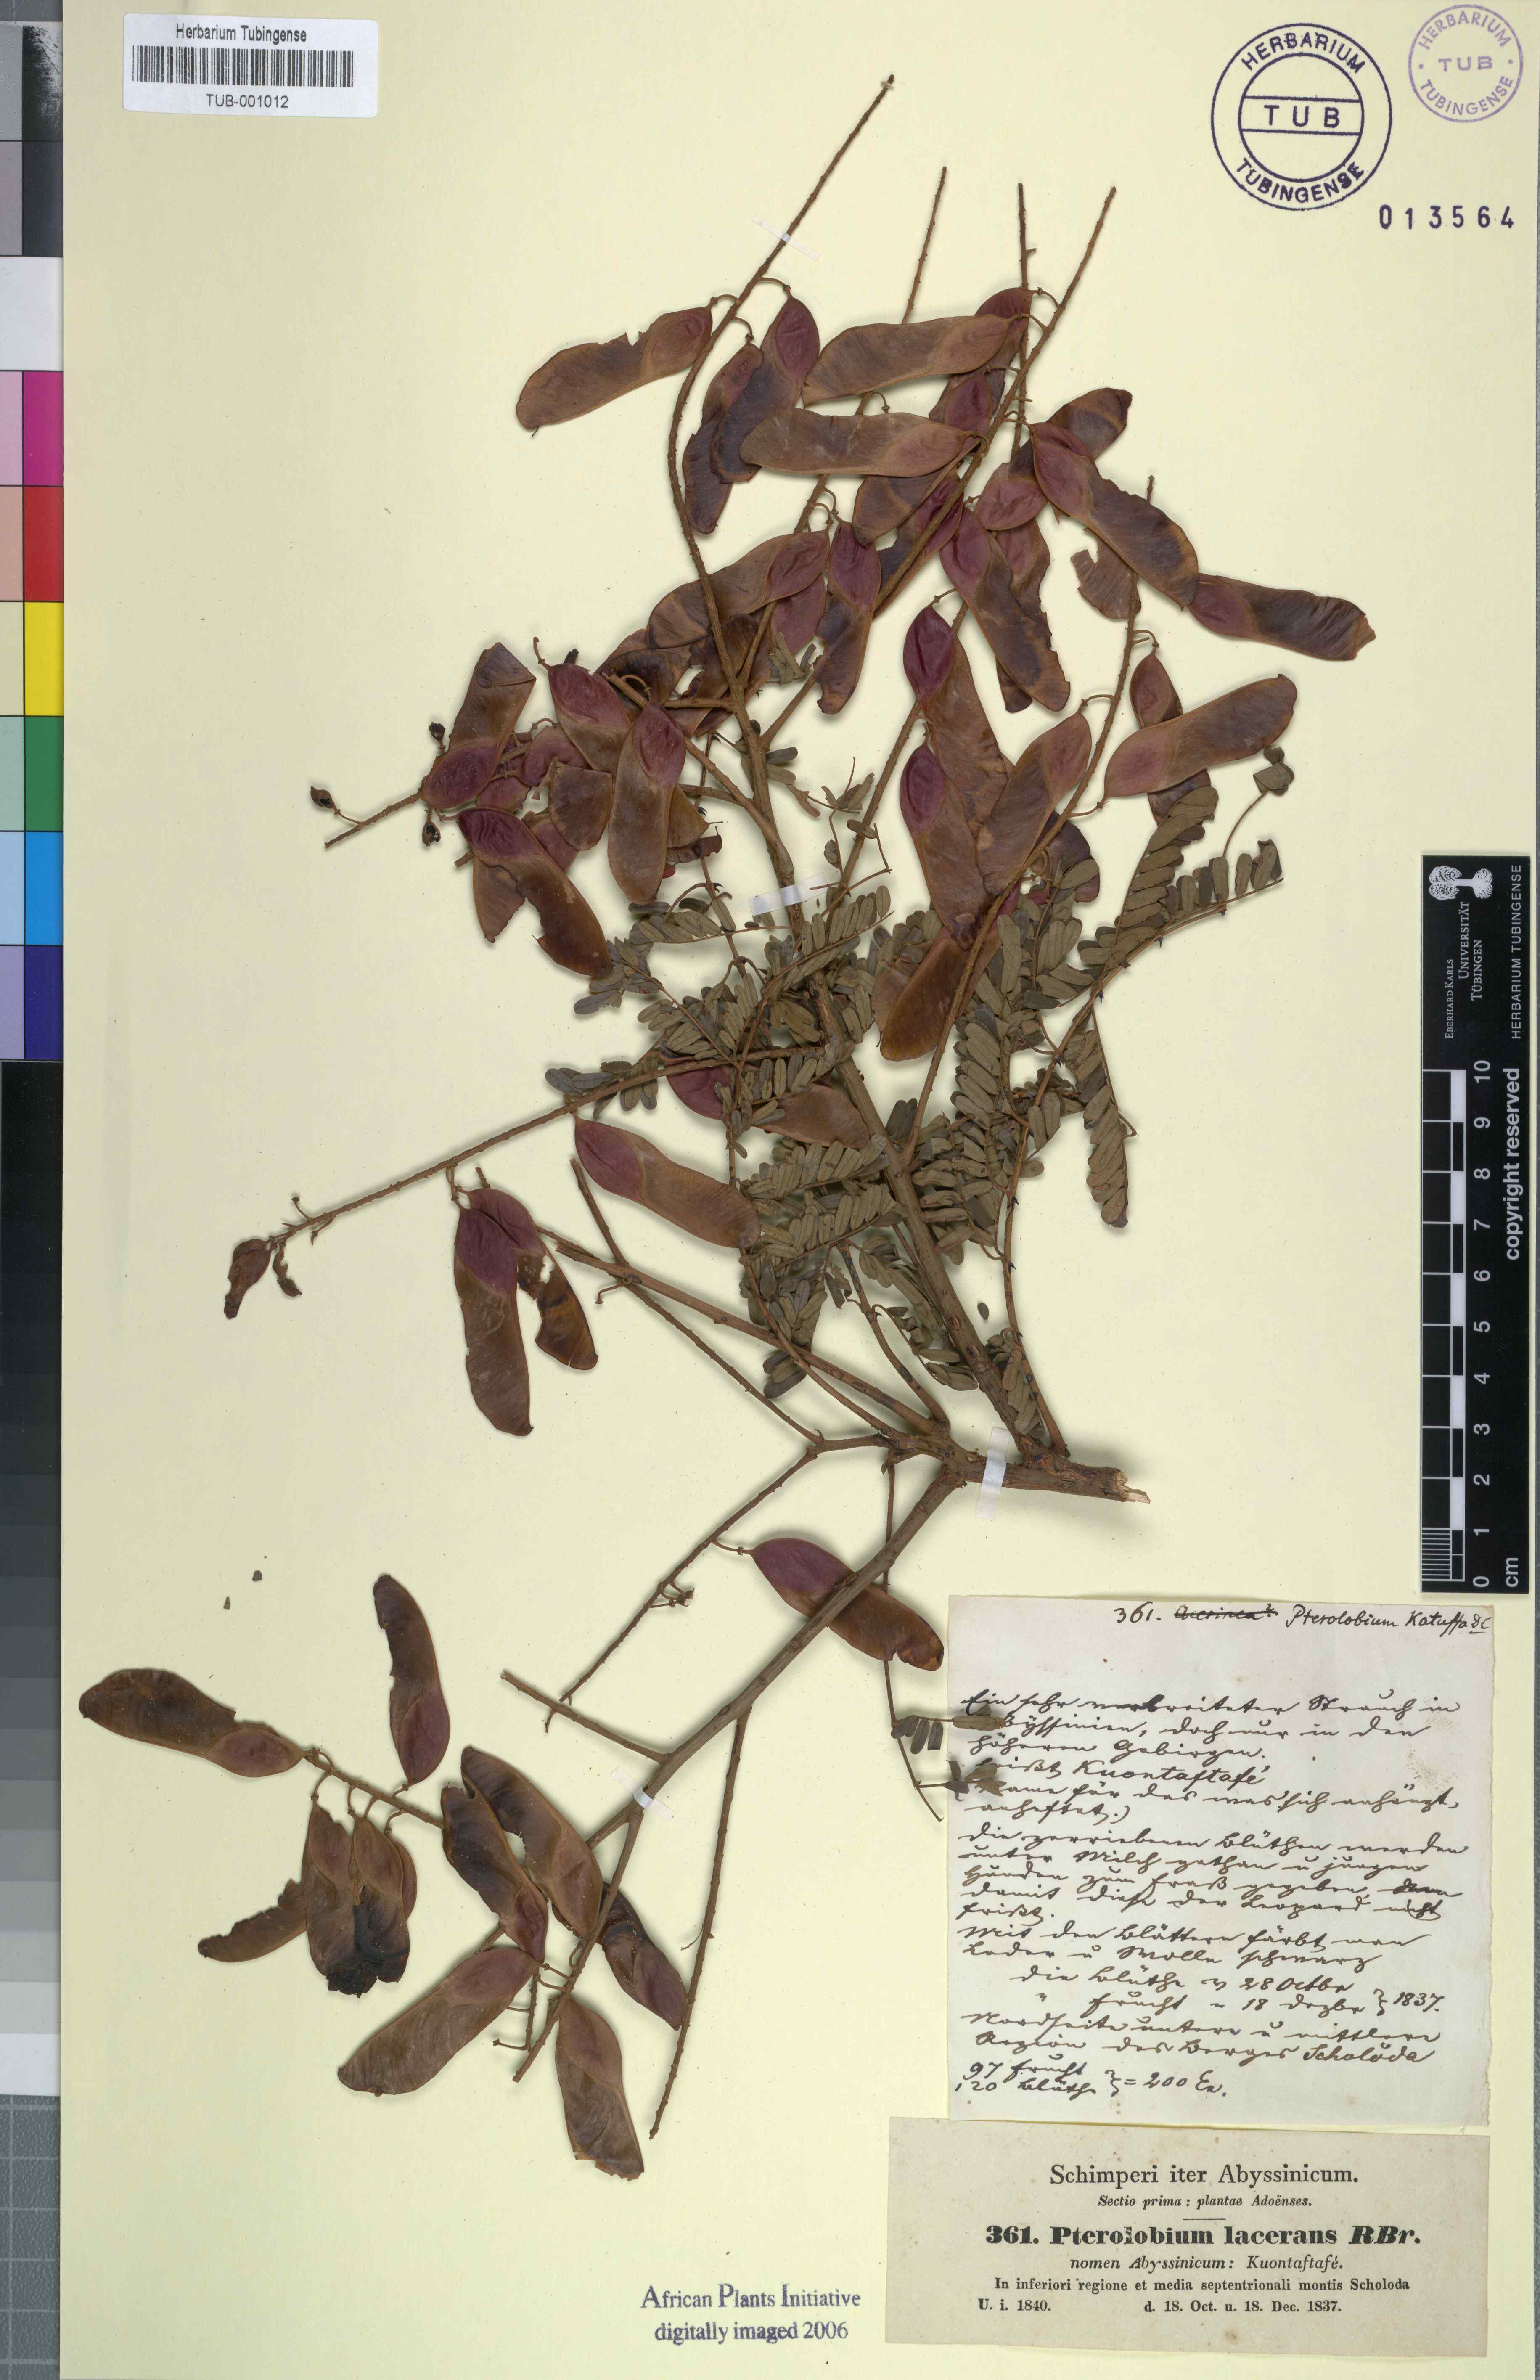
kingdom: Plantae
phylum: Tracheophyta
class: Magnoliopsida
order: Fabales
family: Fabaceae
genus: Pterolobium
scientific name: Pterolobium stellatum
